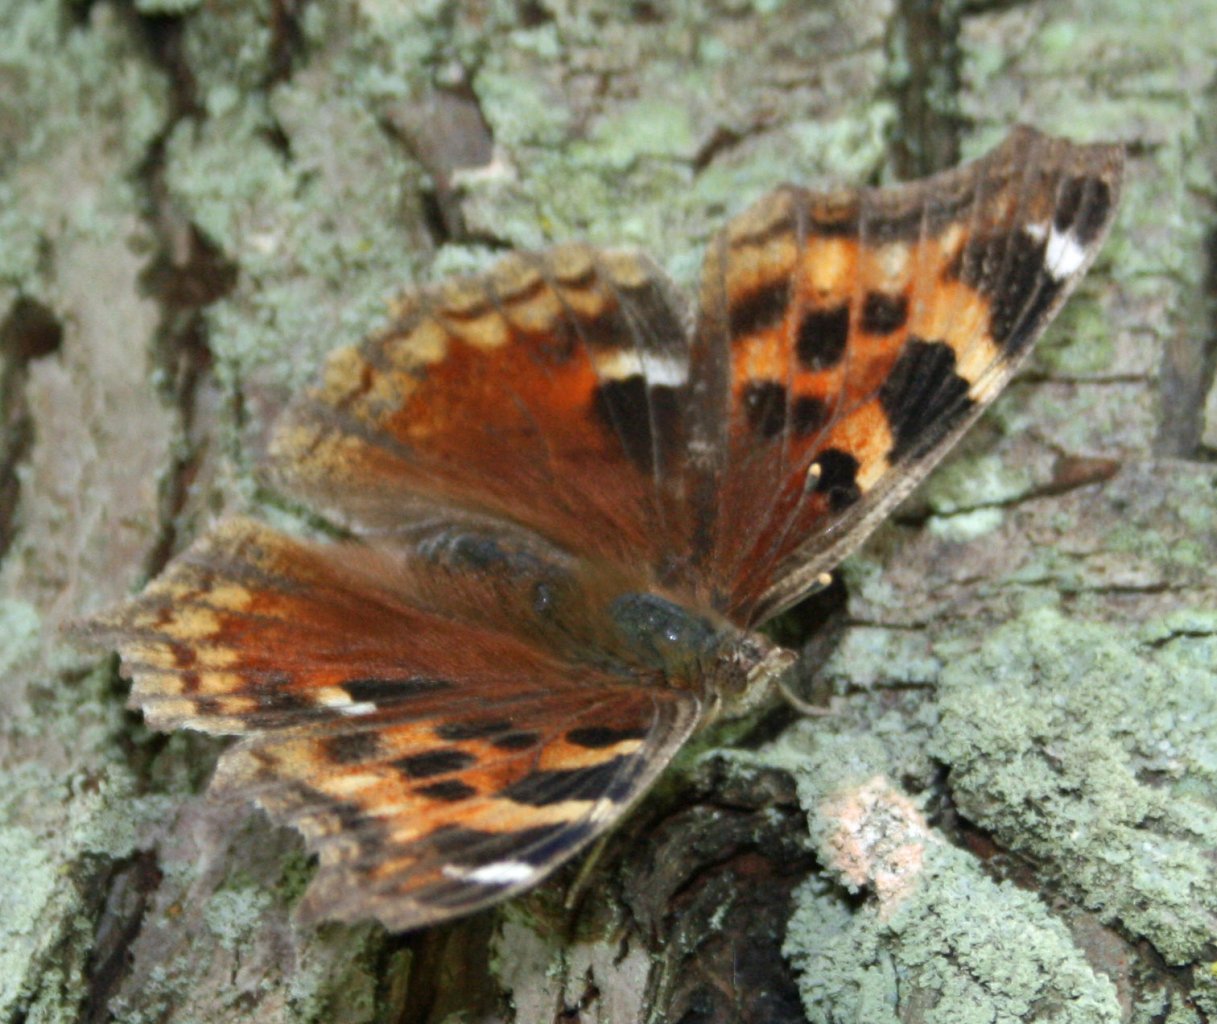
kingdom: Animalia
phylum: Arthropoda
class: Insecta
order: Lepidoptera
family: Nymphalidae
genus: Polygonia
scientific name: Polygonia vaualbum
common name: Compton Tortoiseshell
